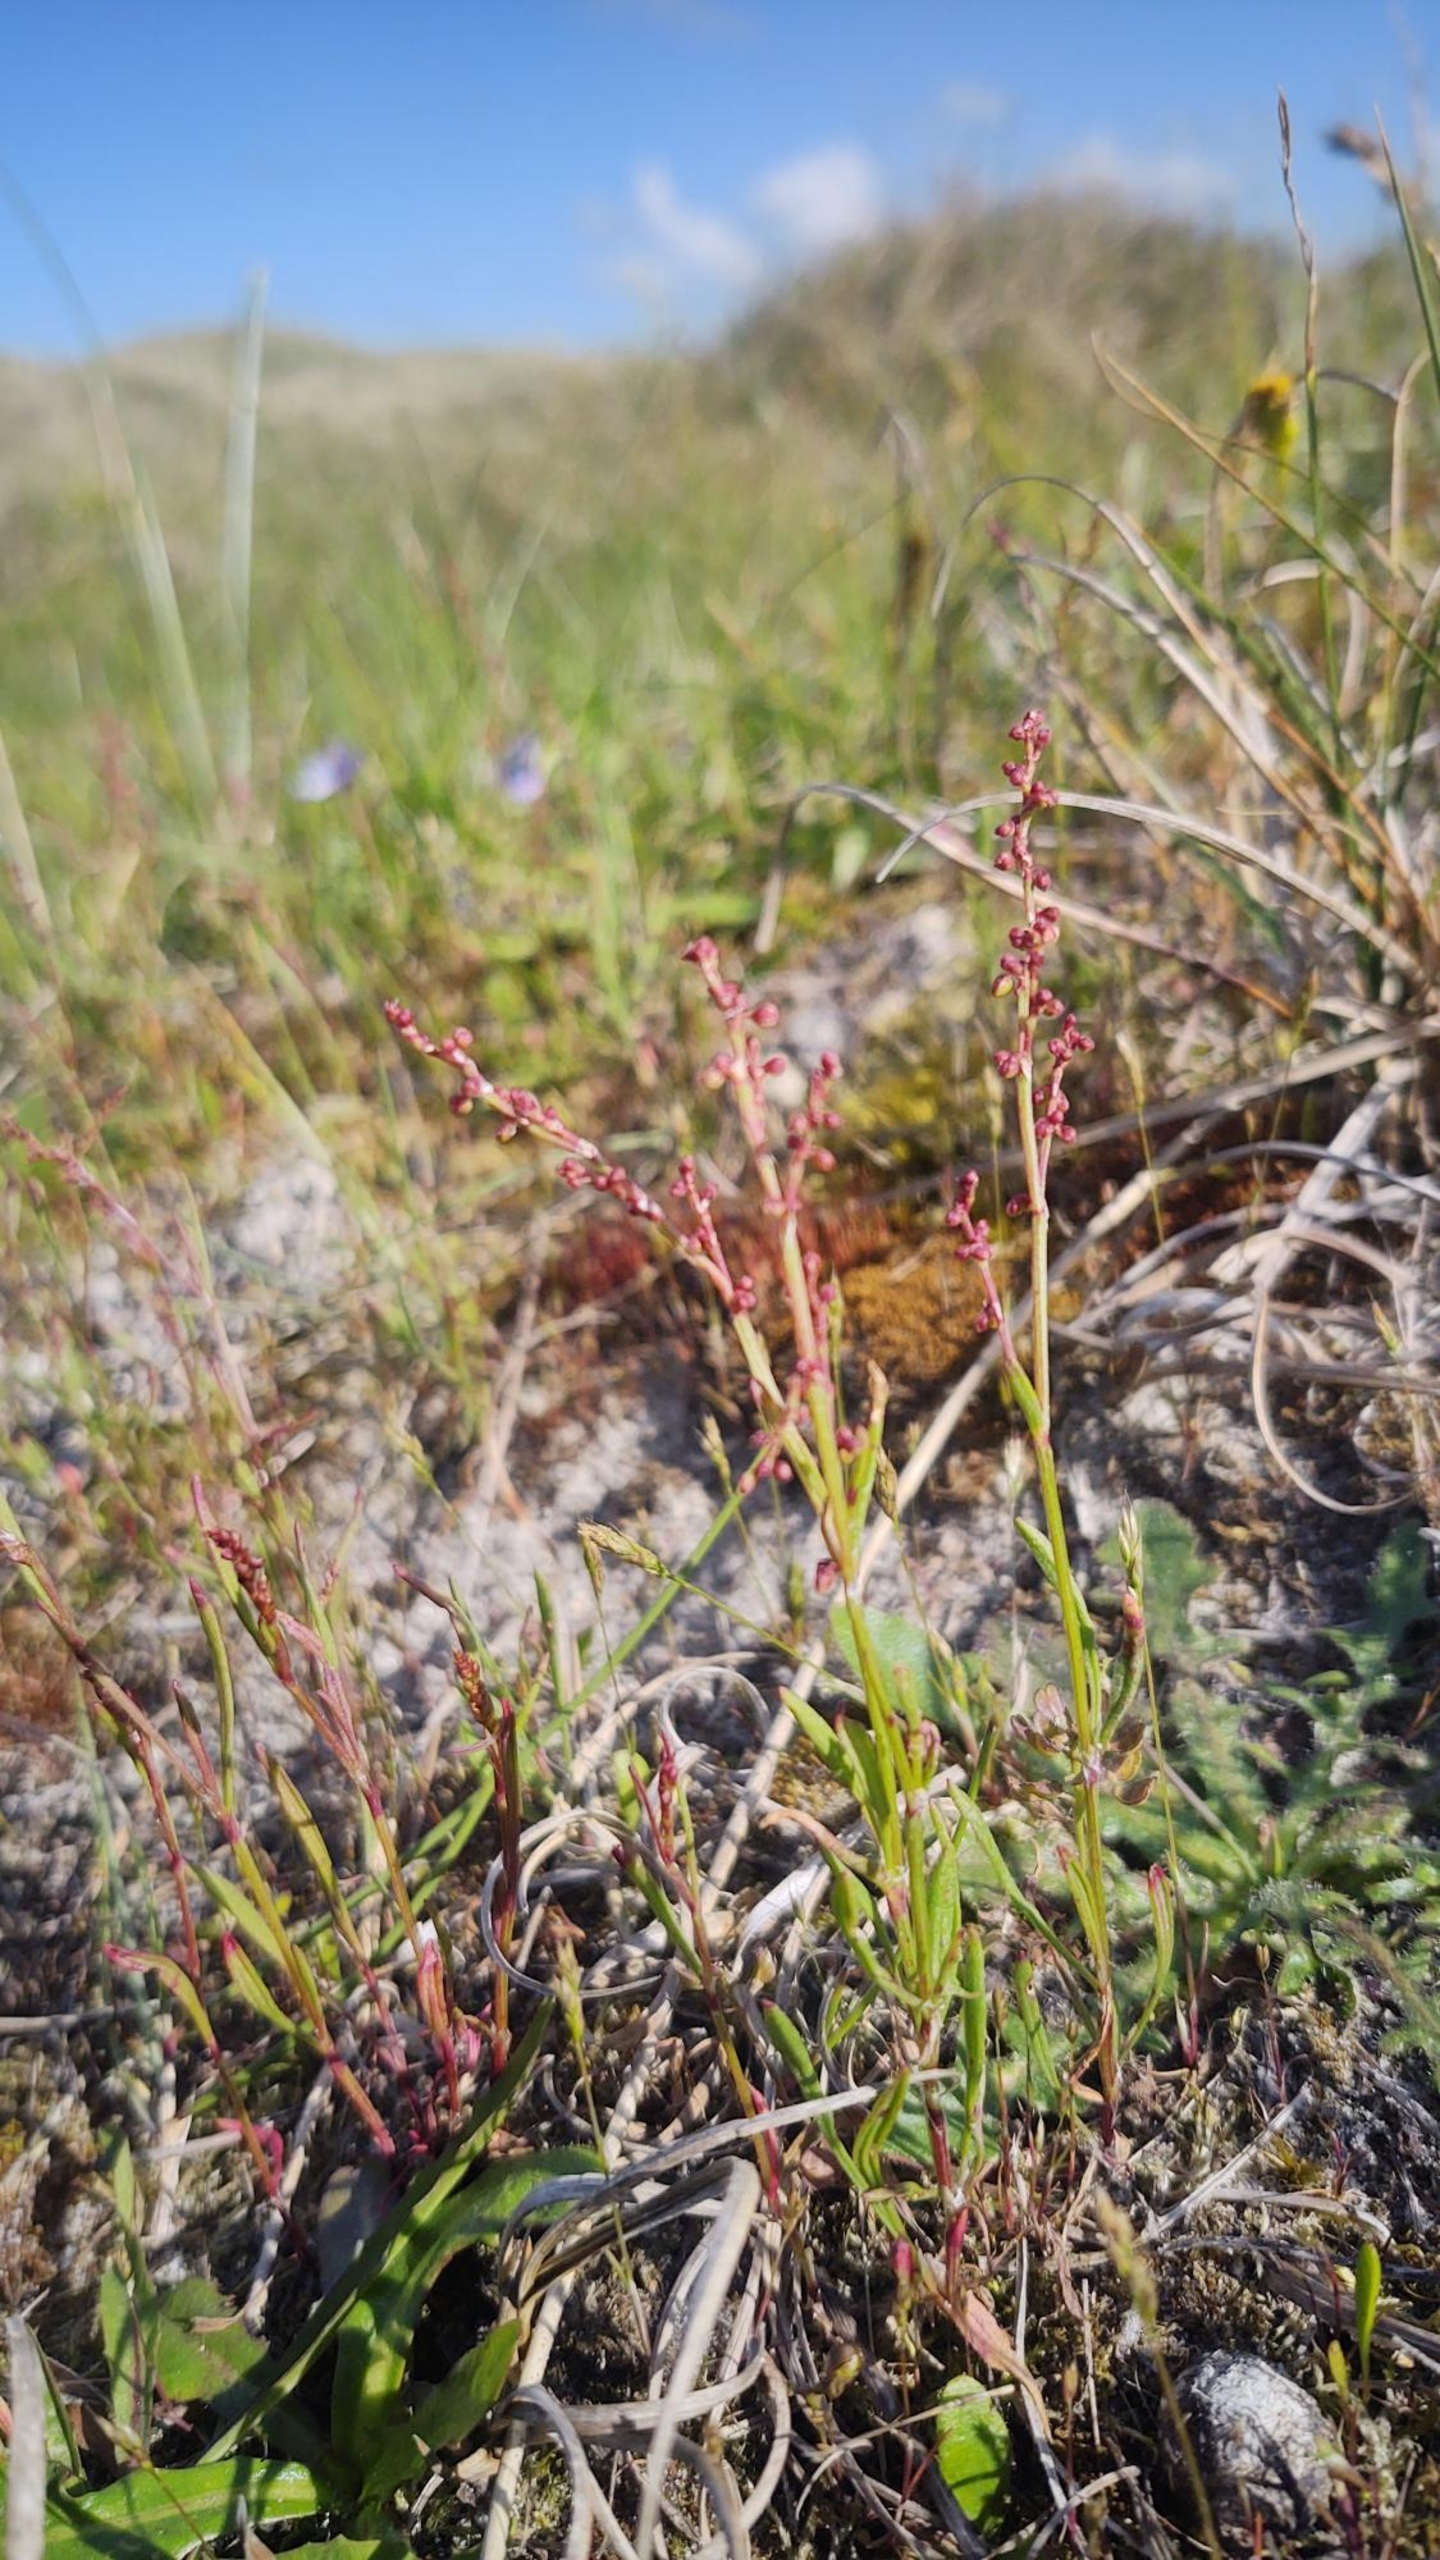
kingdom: Plantae
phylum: Tracheophyta
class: Magnoliopsida
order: Caryophyllales
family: Polygonaceae
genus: Rumex
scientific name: Rumex acetosella
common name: Rødknæ
